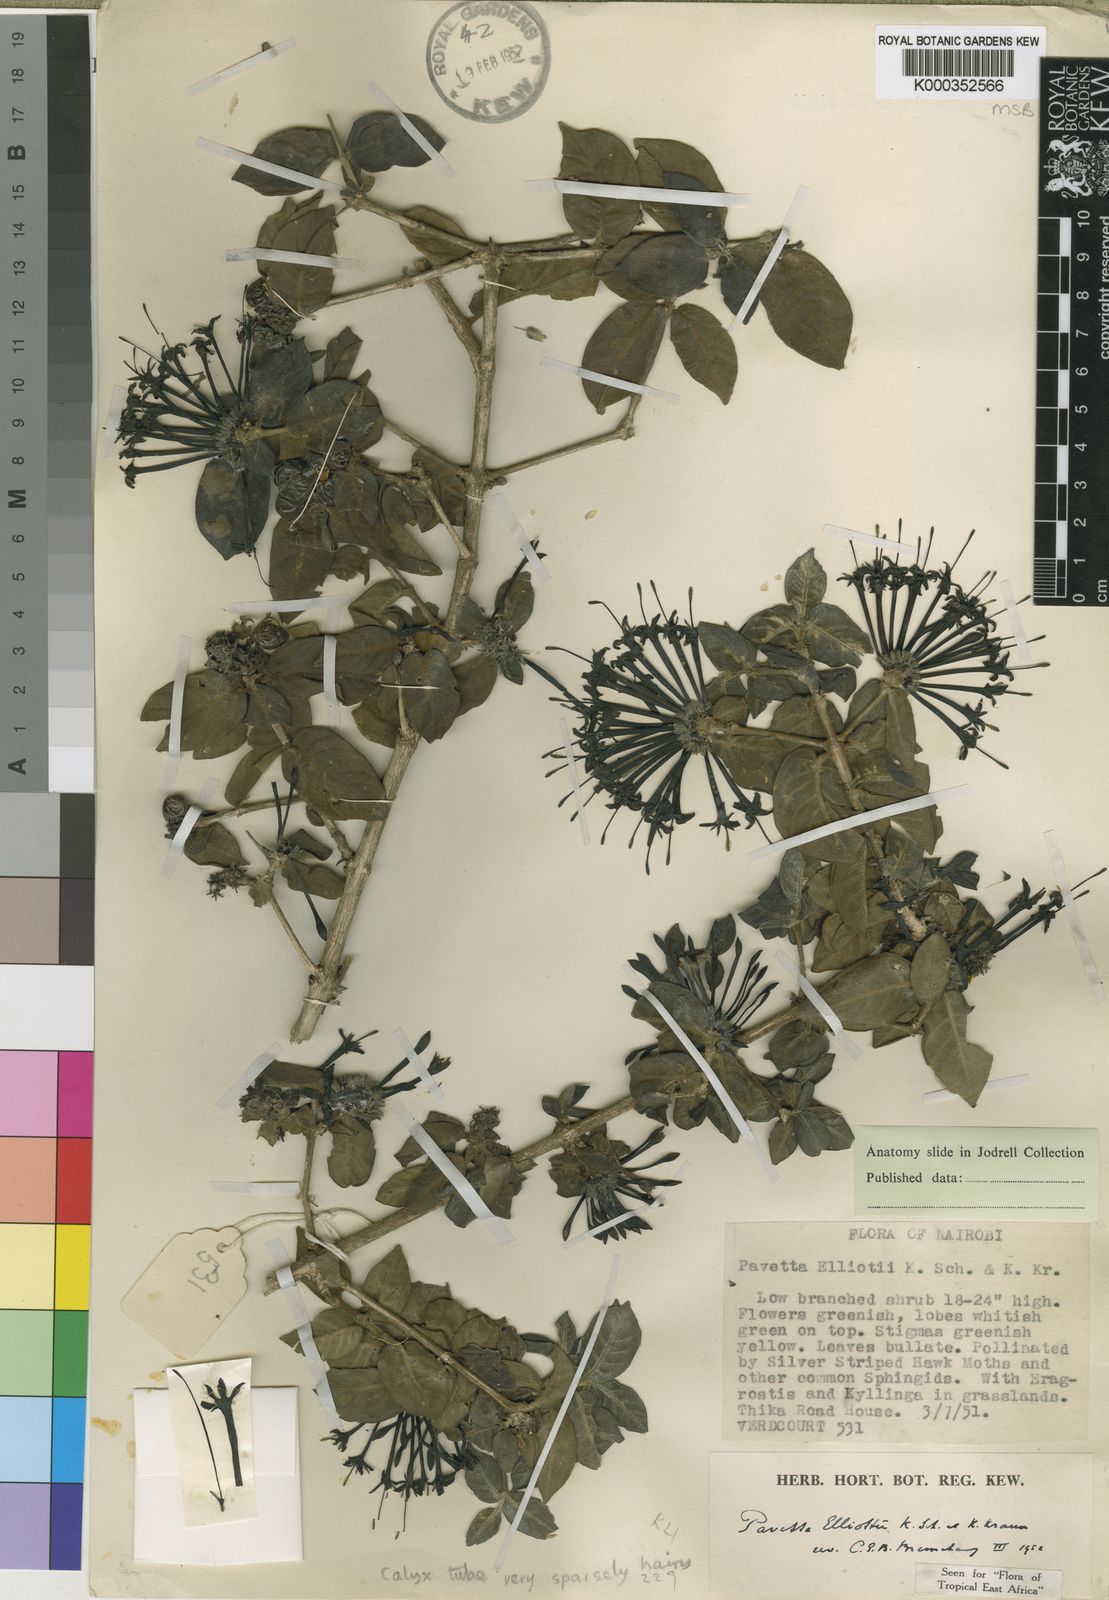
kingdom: Plantae
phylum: Tracheophyta
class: Magnoliopsida
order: Gentianales
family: Rubiaceae
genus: Pavetta
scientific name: Pavetta elliottii
